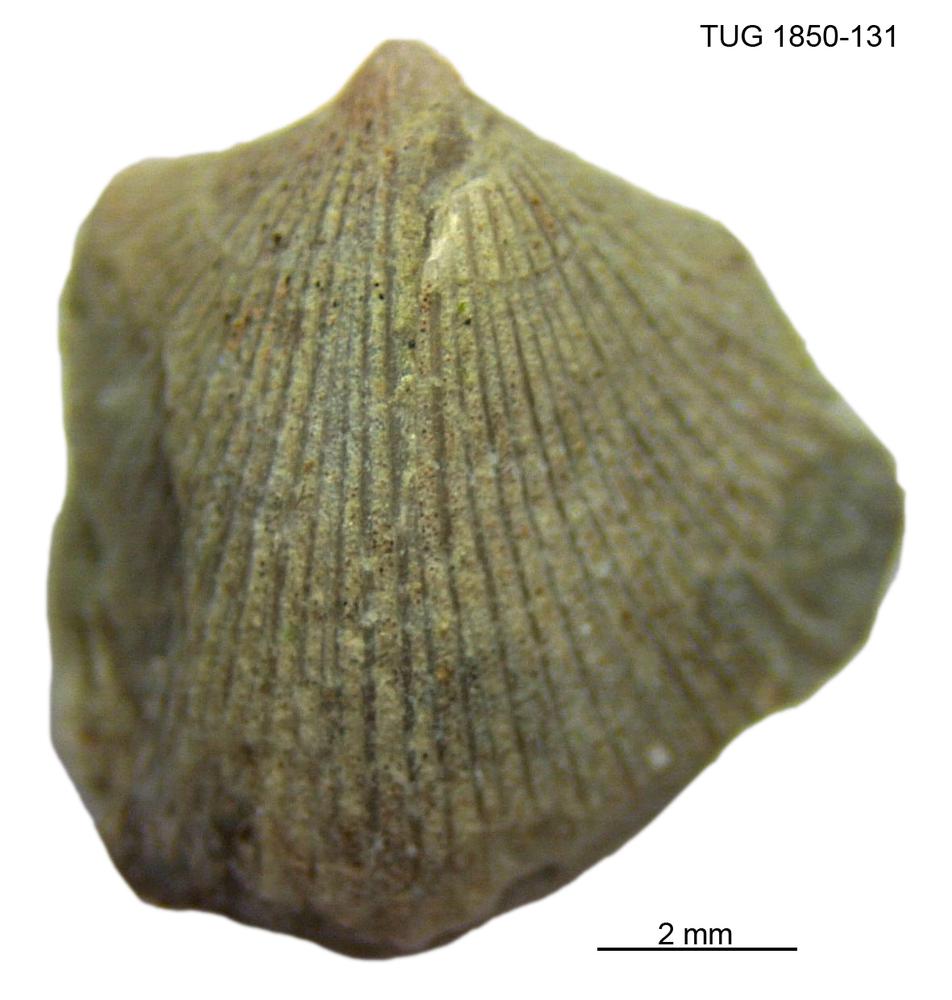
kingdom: Animalia
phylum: Brachiopoda
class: Rhynchonellata
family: Dalmanellidae
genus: Resserella
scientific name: Resserella
